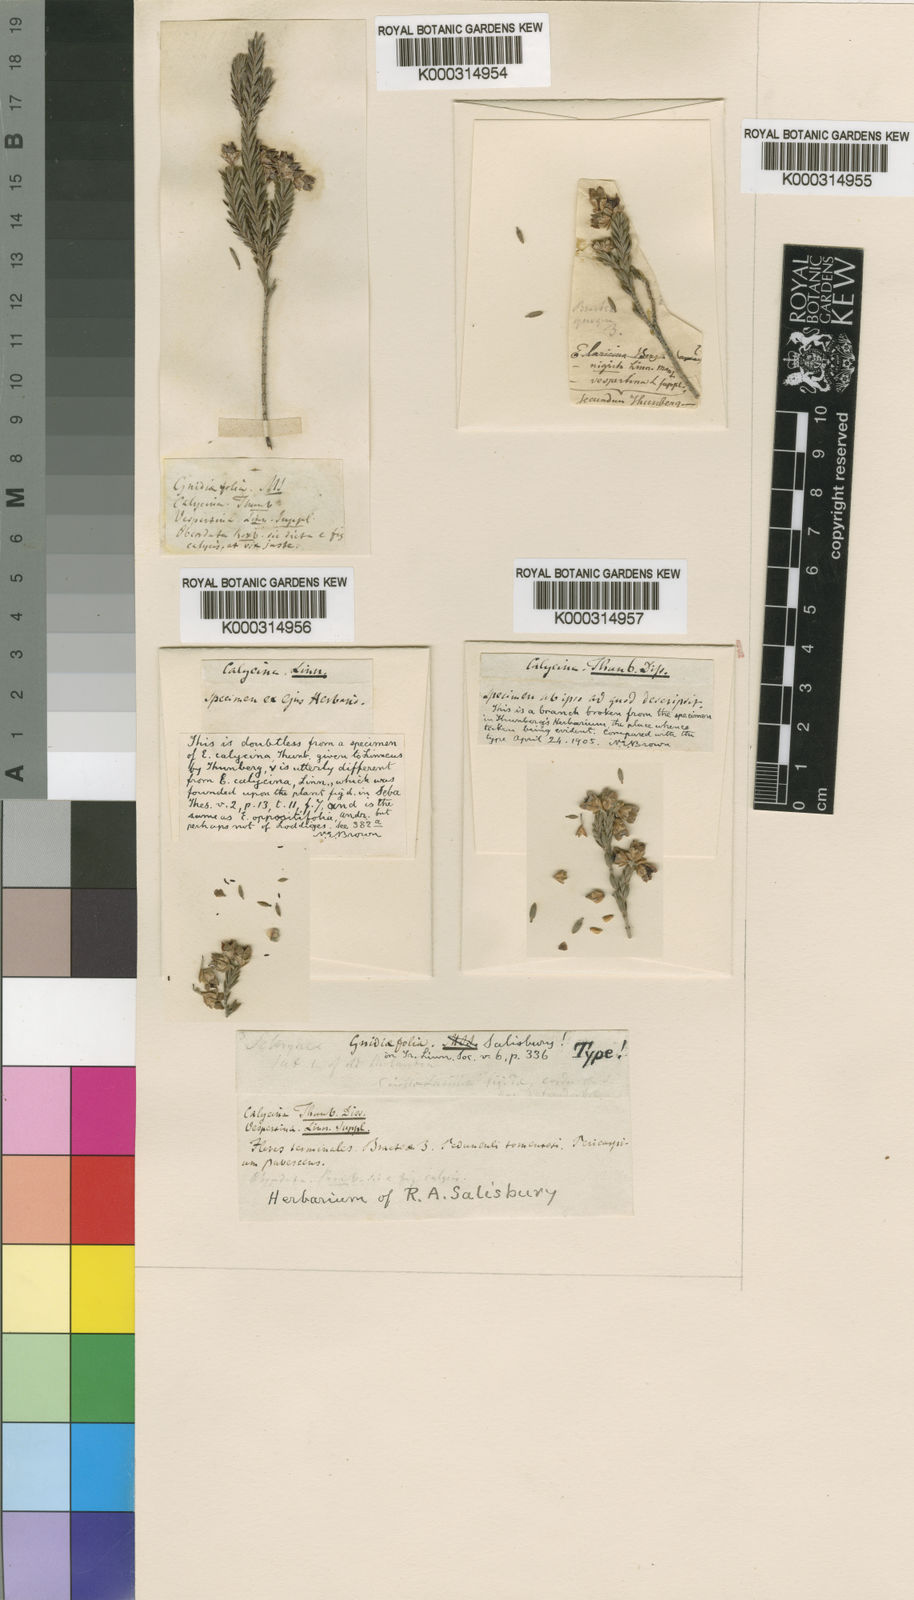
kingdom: Plantae
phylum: Tracheophyta
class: Magnoliopsida
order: Ericales
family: Ericaceae
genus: Erica
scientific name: Erica calycina
